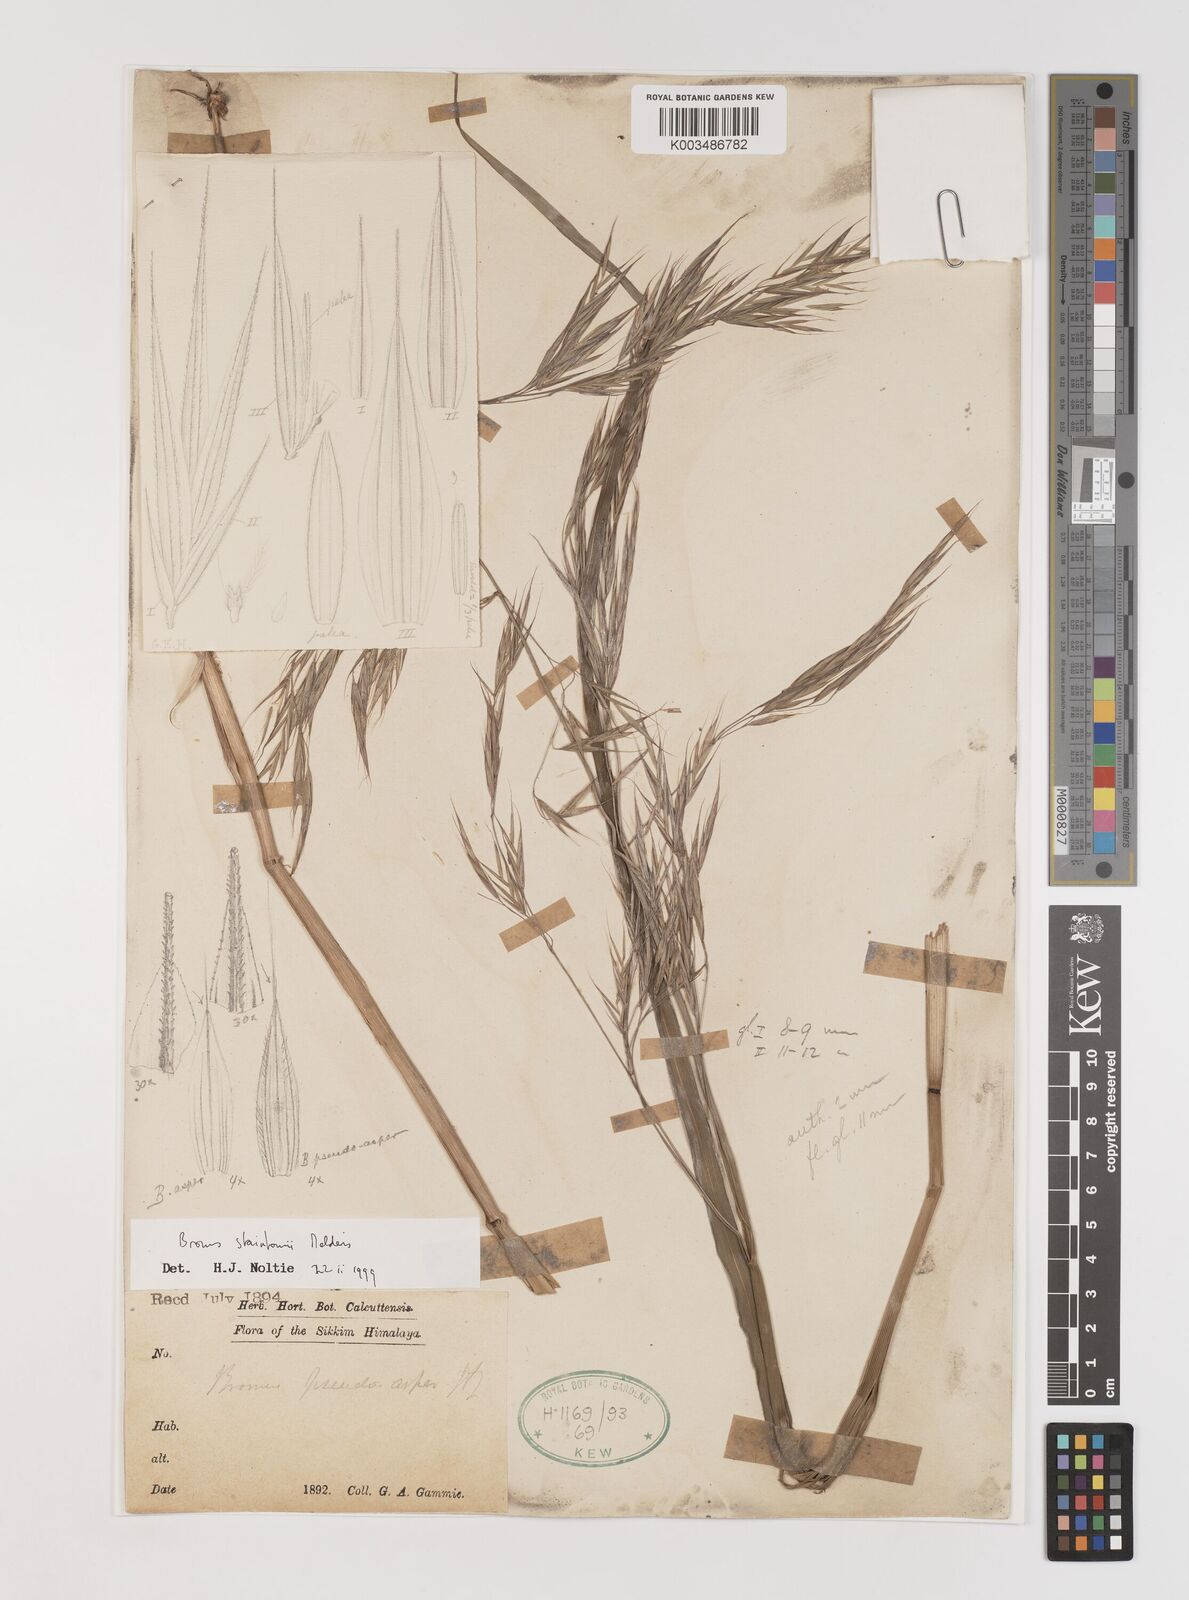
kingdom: Plantae
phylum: Tracheophyta
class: Liliopsida
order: Poales
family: Poaceae
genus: Bromus
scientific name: Bromus staintonii
